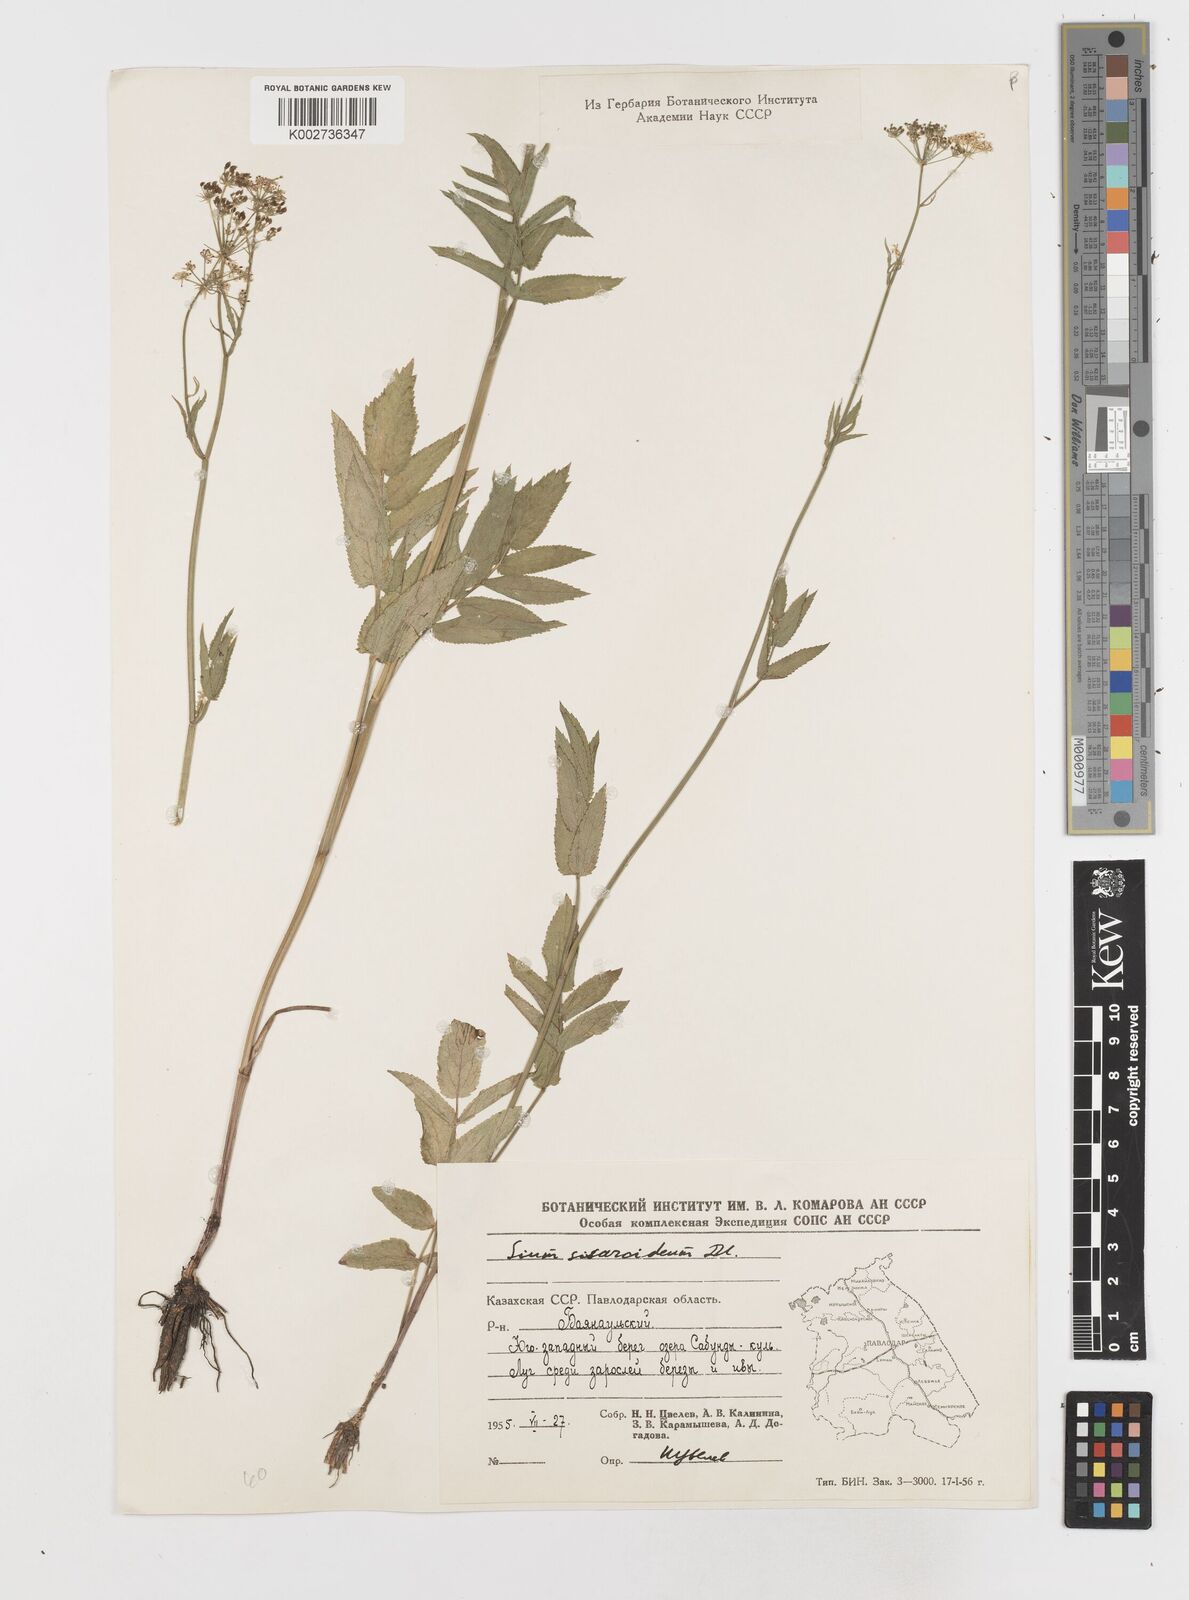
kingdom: Plantae
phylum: Tracheophyta
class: Magnoliopsida
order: Apiales
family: Apiaceae
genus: Sium
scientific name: Sium sisarum
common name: Skirret
